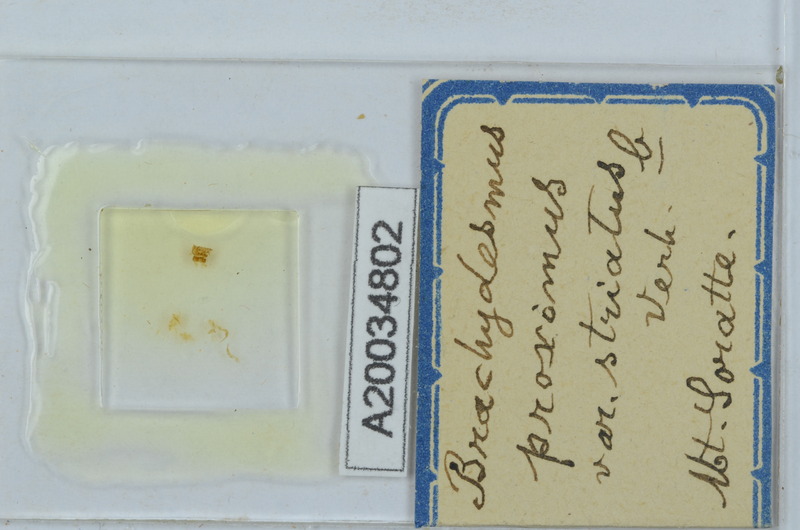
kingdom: Animalia
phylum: Arthropoda
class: Diplopoda
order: Polydesmida
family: Polydesmidae
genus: Brachydesmus
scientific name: Brachydesmus proximus
